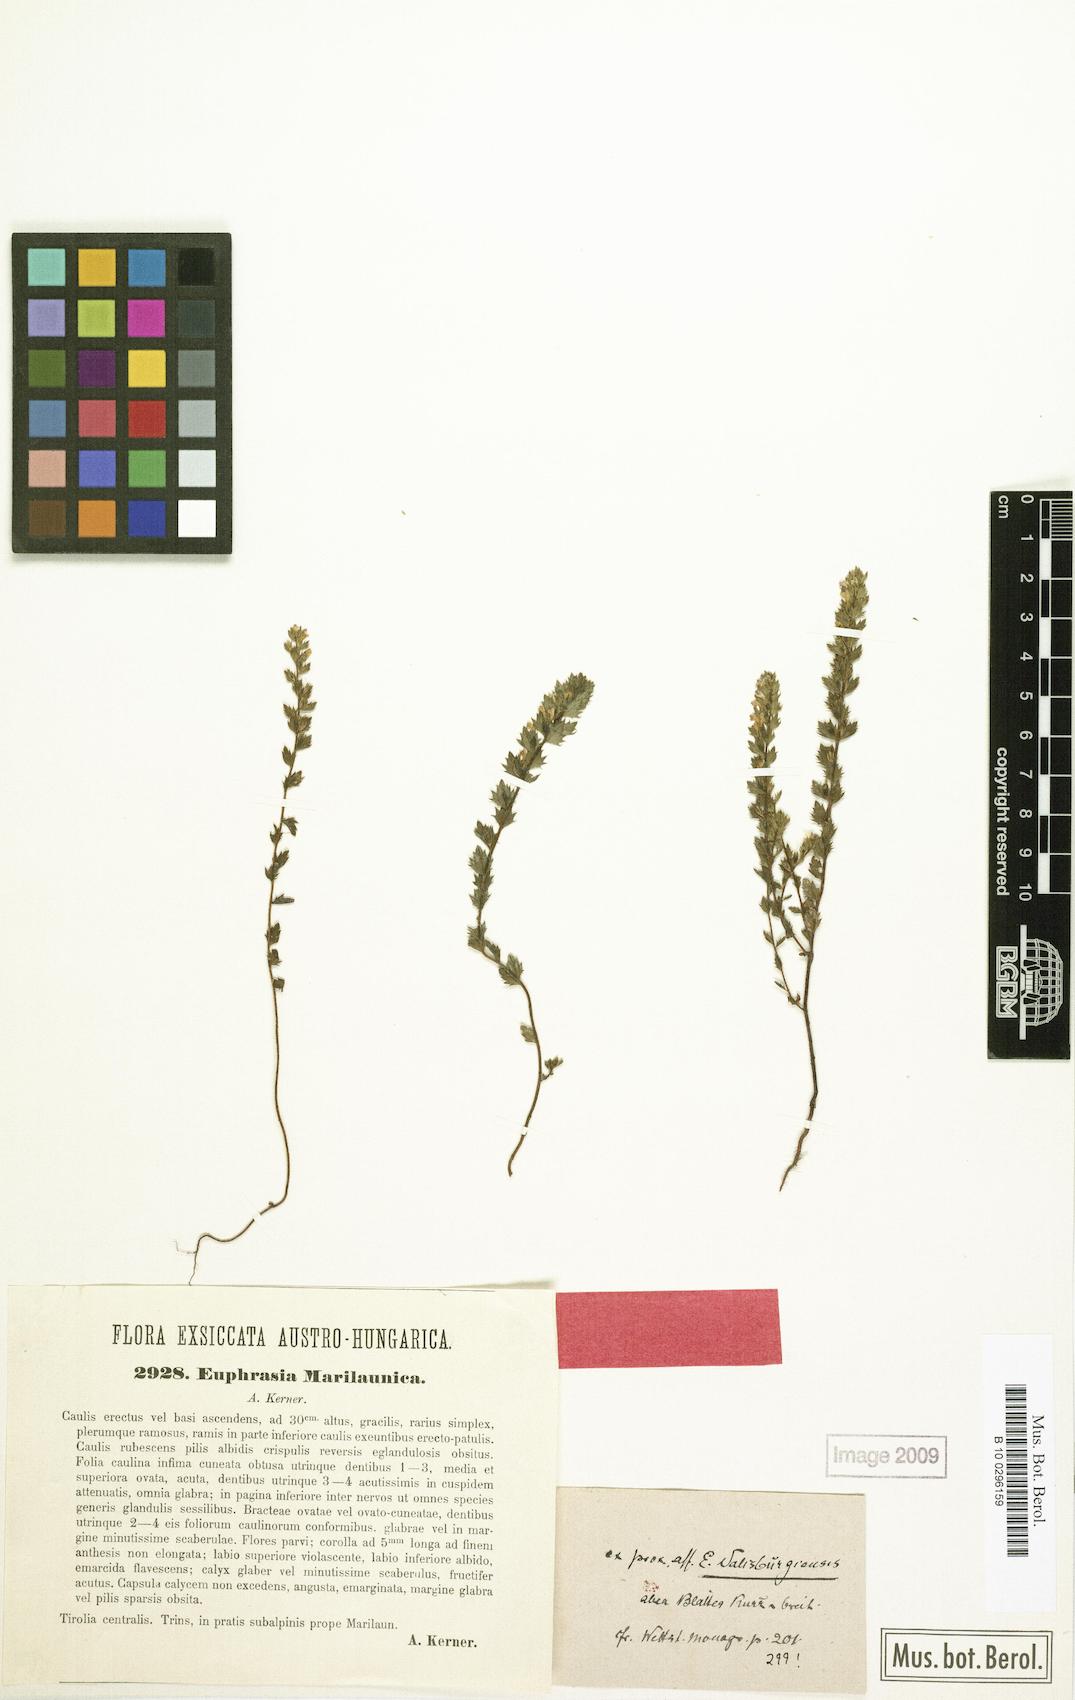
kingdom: Plantae
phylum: Tracheophyta
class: Magnoliopsida
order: Lamiales
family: Orobanchaceae
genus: Euphrasia
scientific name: Euphrasia salisburgensis
